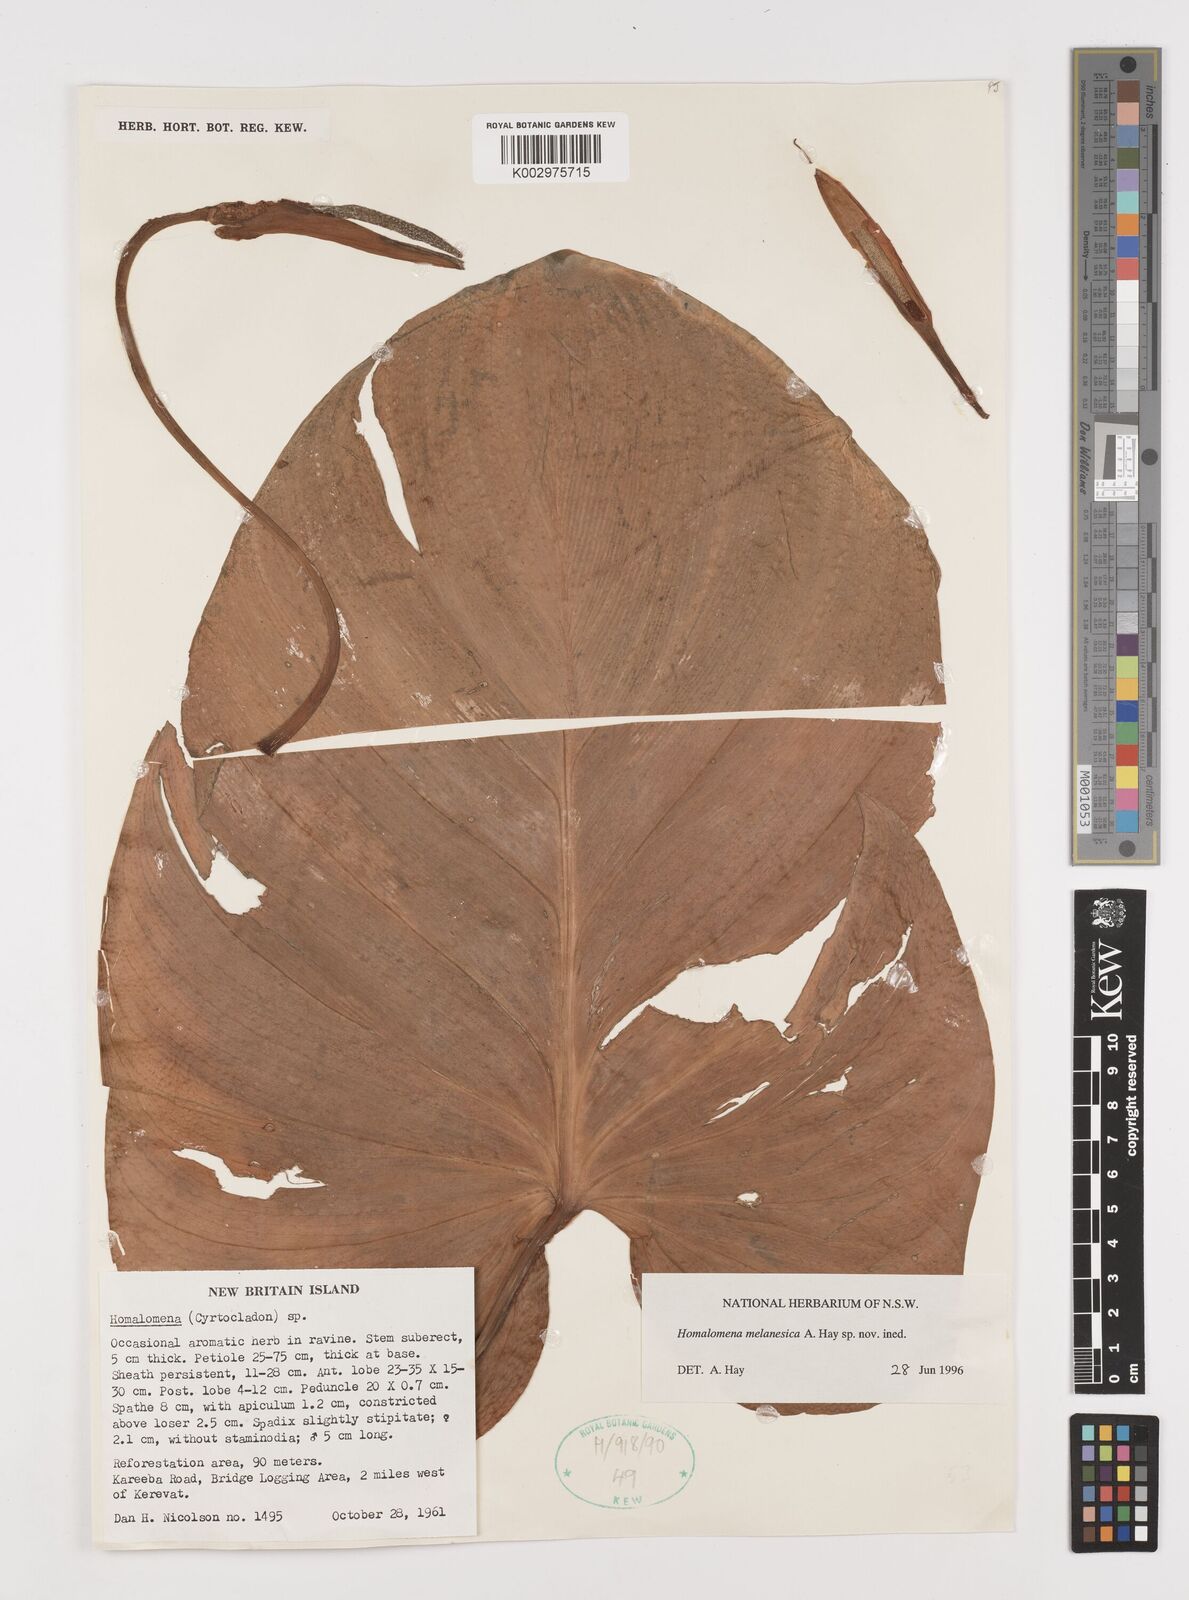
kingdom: Plantae
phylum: Tracheophyta
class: Liliopsida
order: Alismatales
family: Araceae
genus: Homalomena
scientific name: Homalomena melanesica
